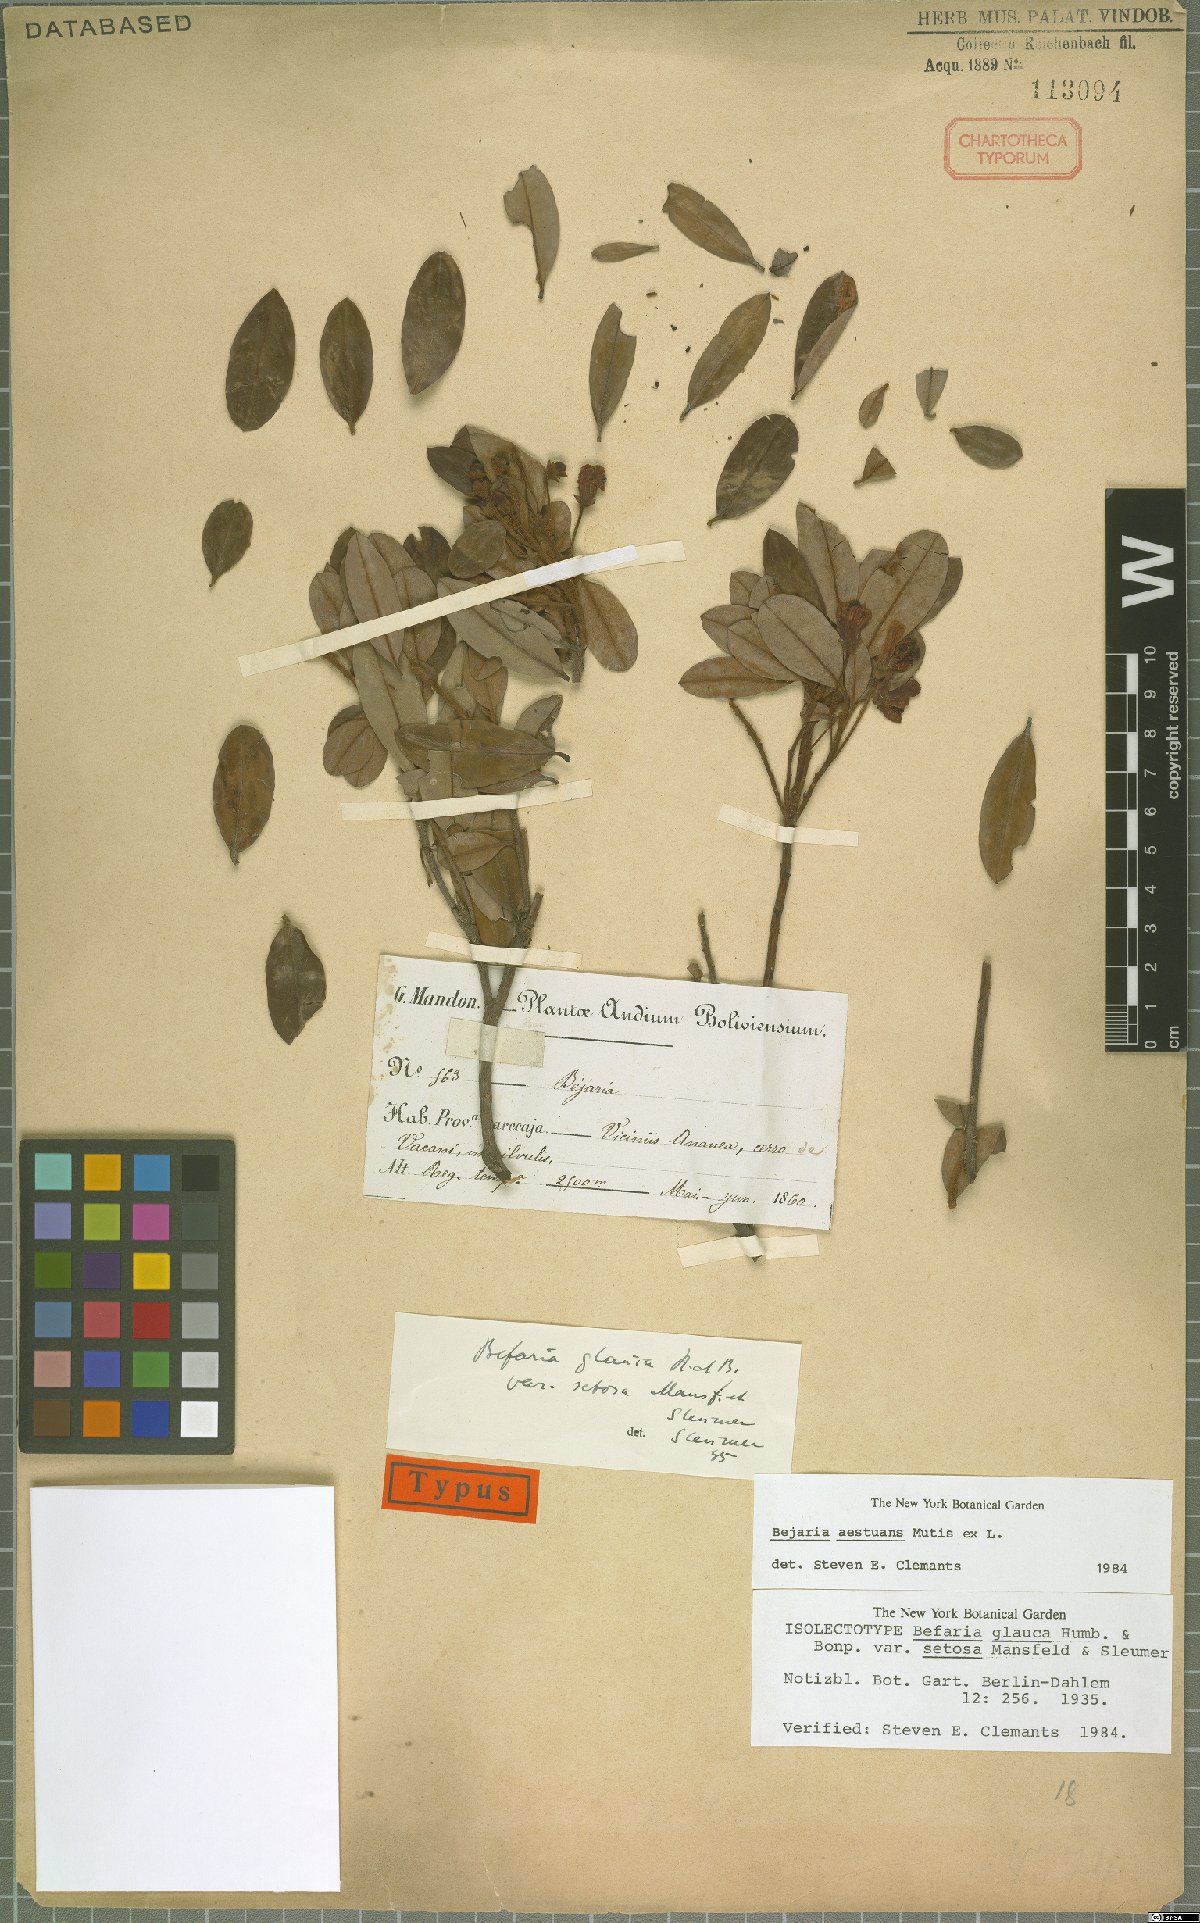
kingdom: Plantae
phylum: Tracheophyta
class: Magnoliopsida
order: Ericales
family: Ericaceae
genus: Bejaria
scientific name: Bejaria aestuans
